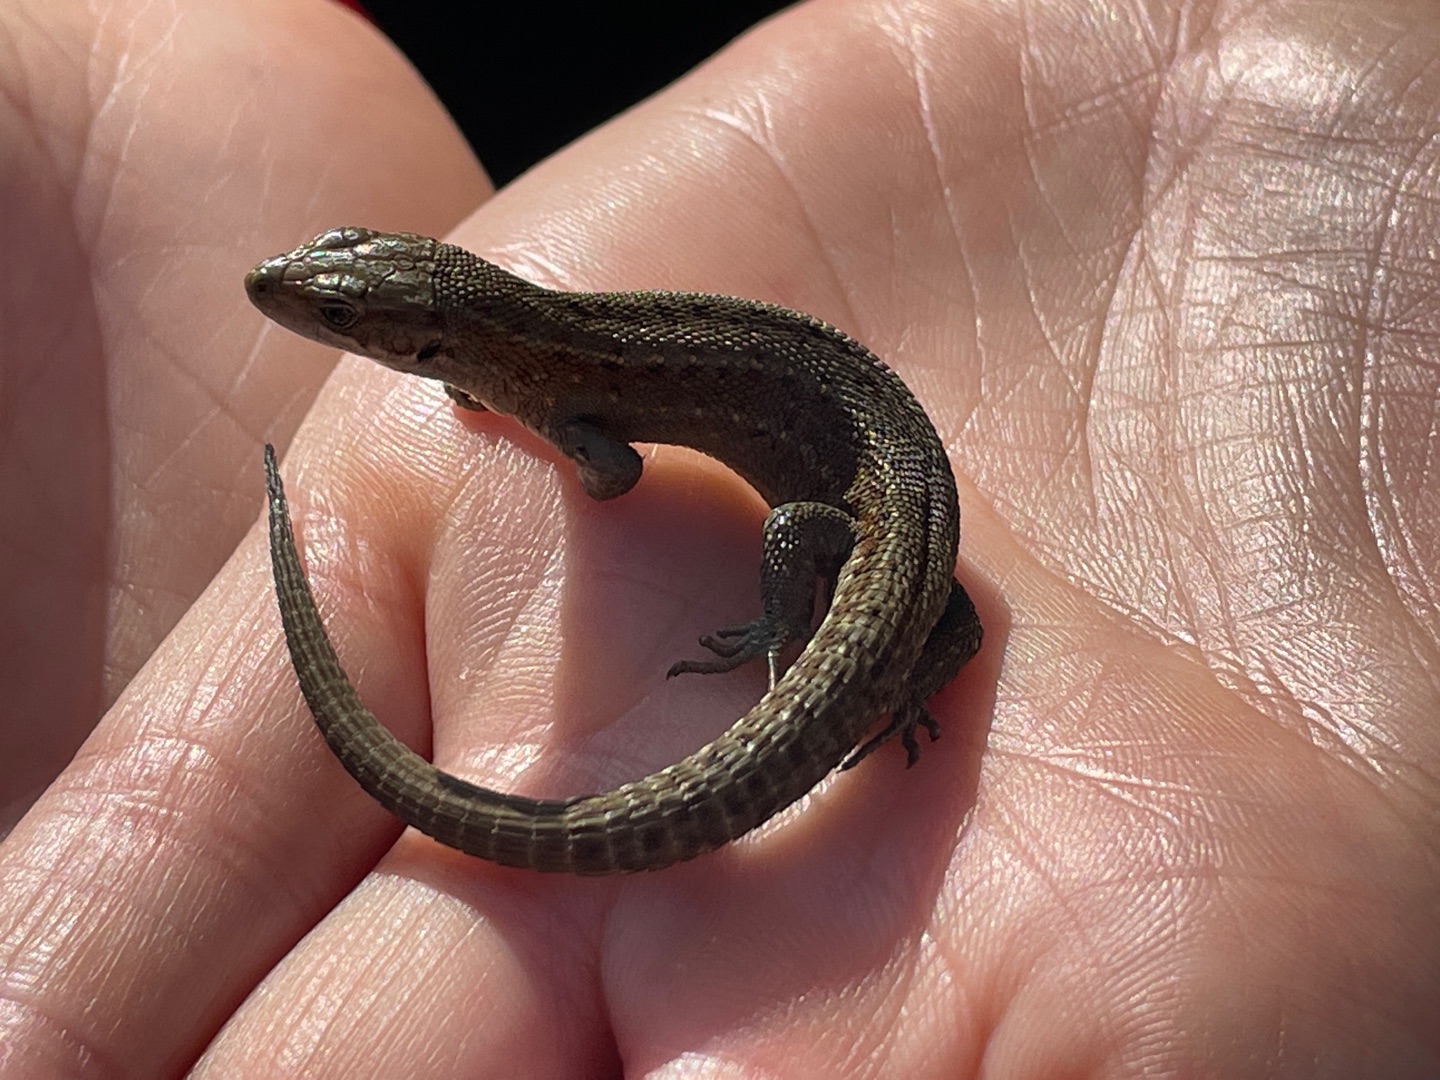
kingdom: Animalia
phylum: Chordata
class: Squamata
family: Lacertidae
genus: Zootoca
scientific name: Zootoca vivipara
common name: Skovfirben
